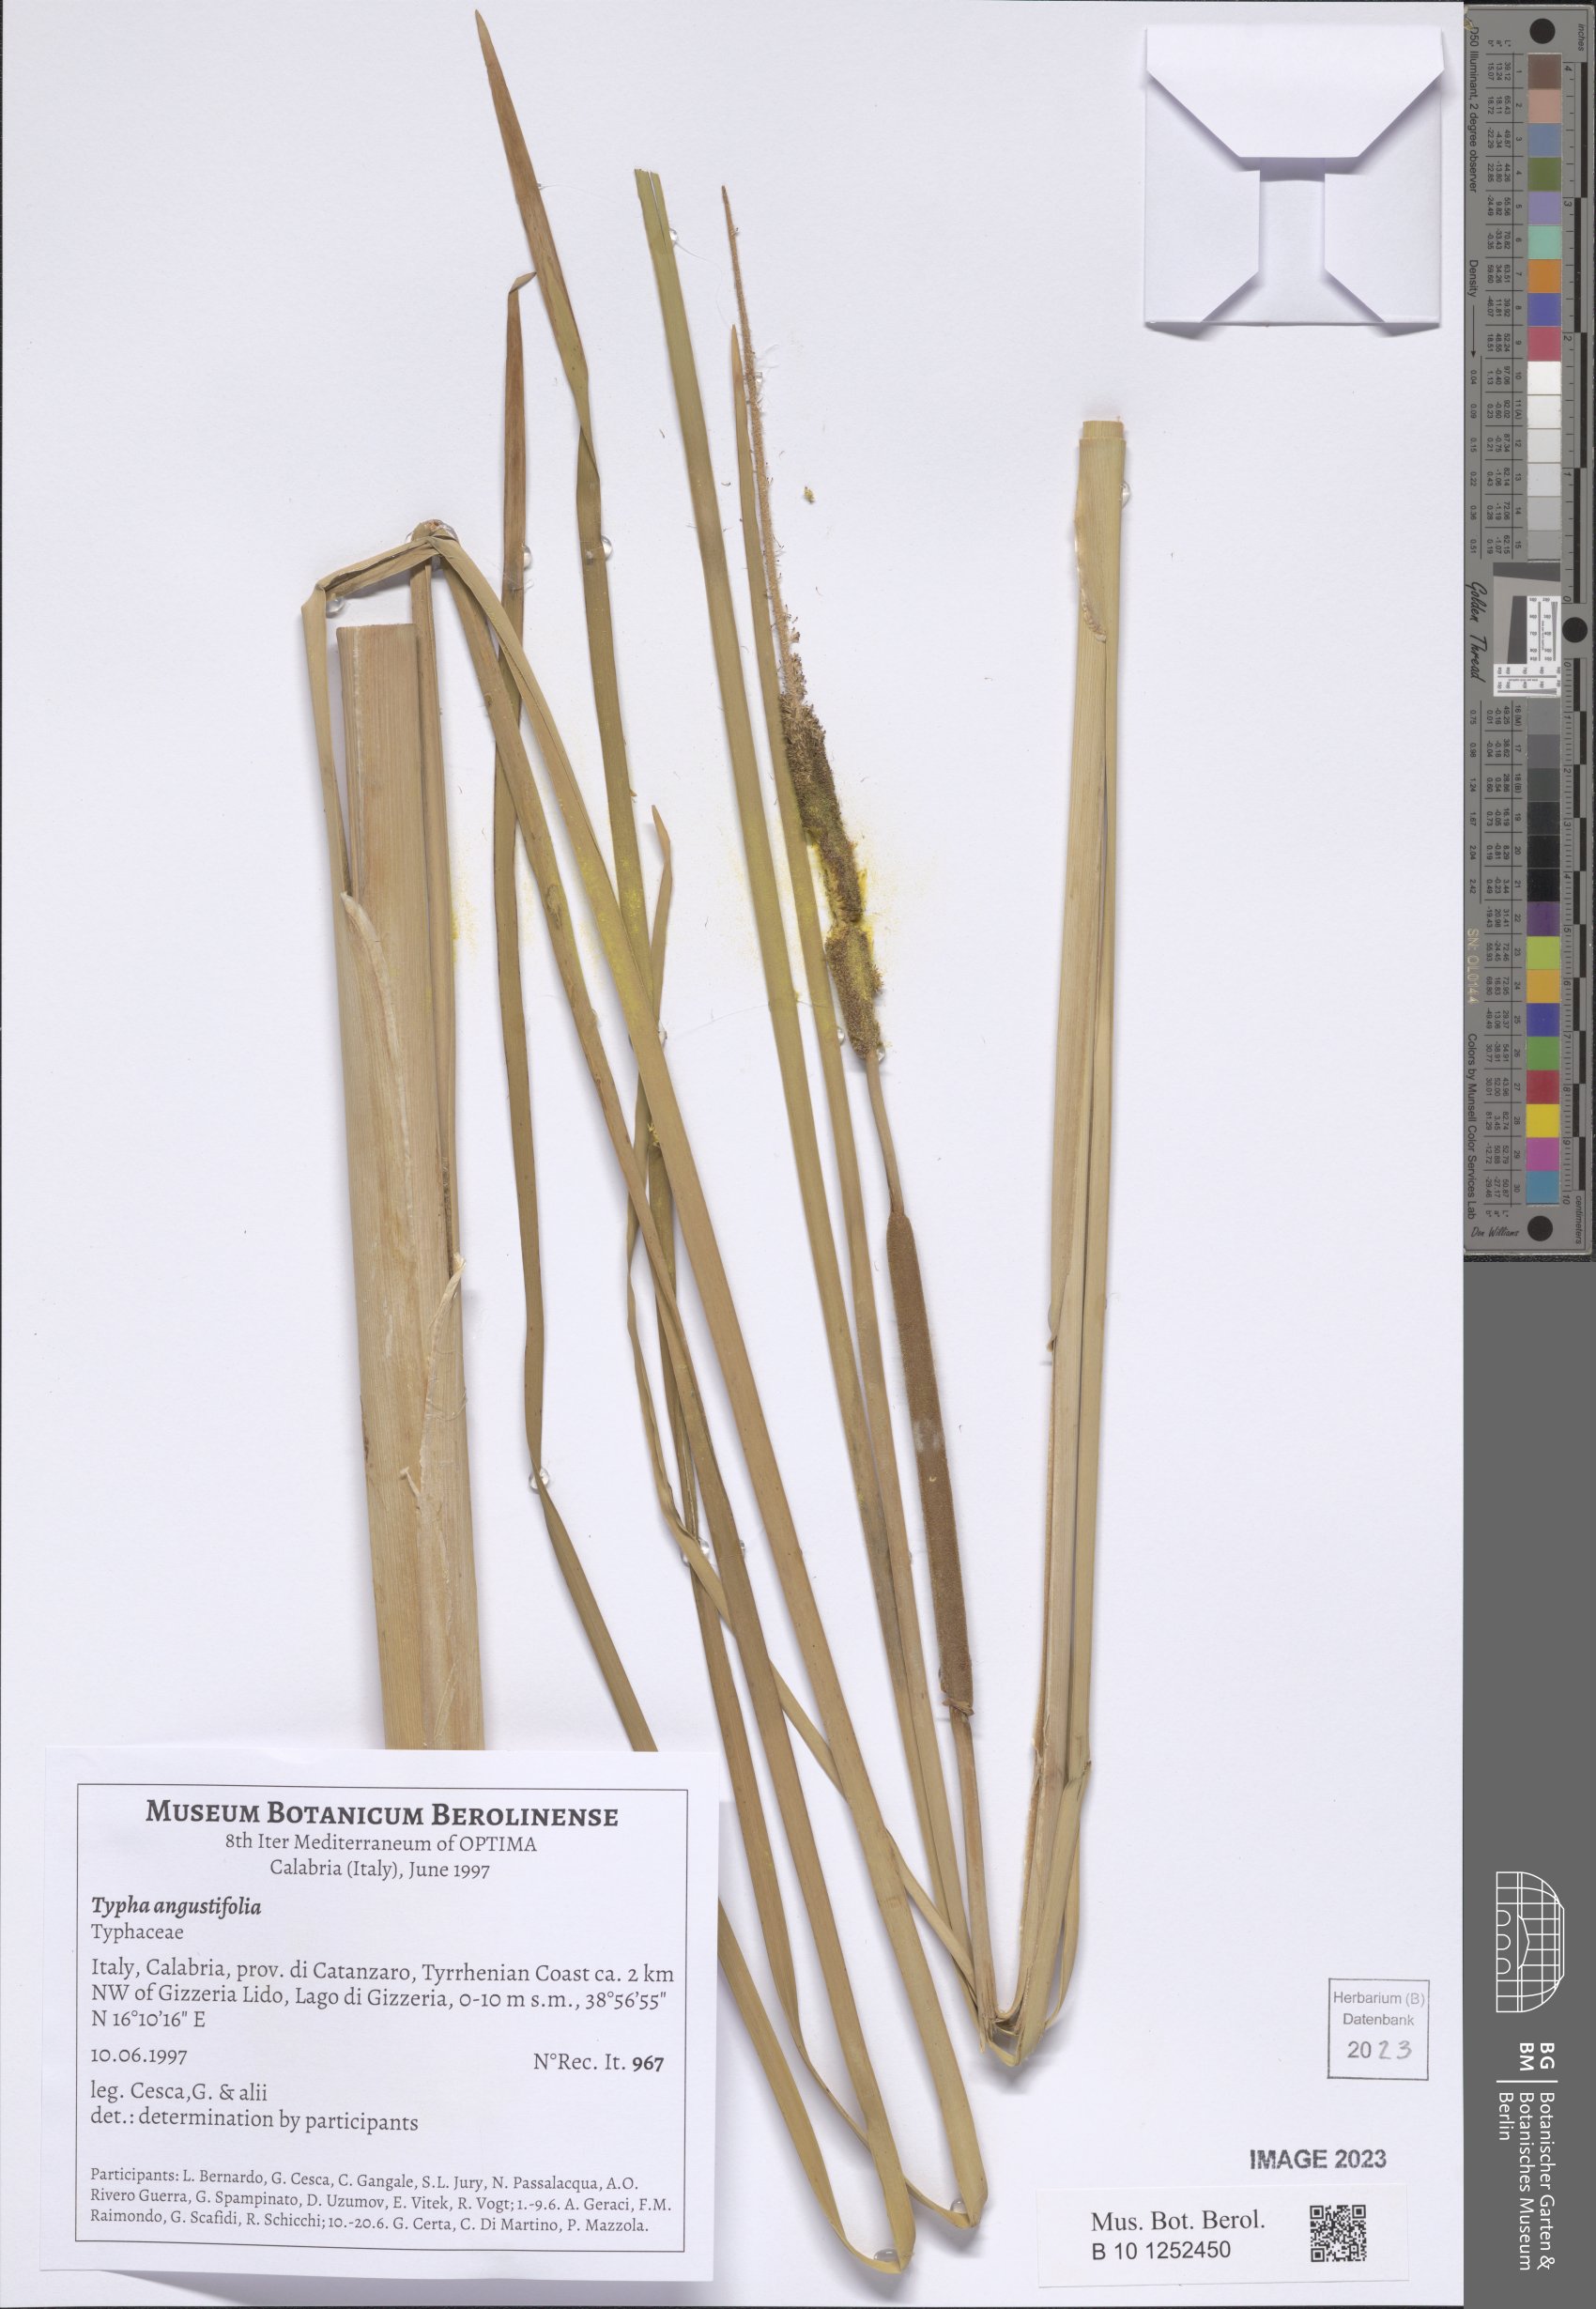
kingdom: Plantae
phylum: Tracheophyta
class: Liliopsida
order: Poales
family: Typhaceae
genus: Typha
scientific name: Typha angustifolia
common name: Lesser bulrush
